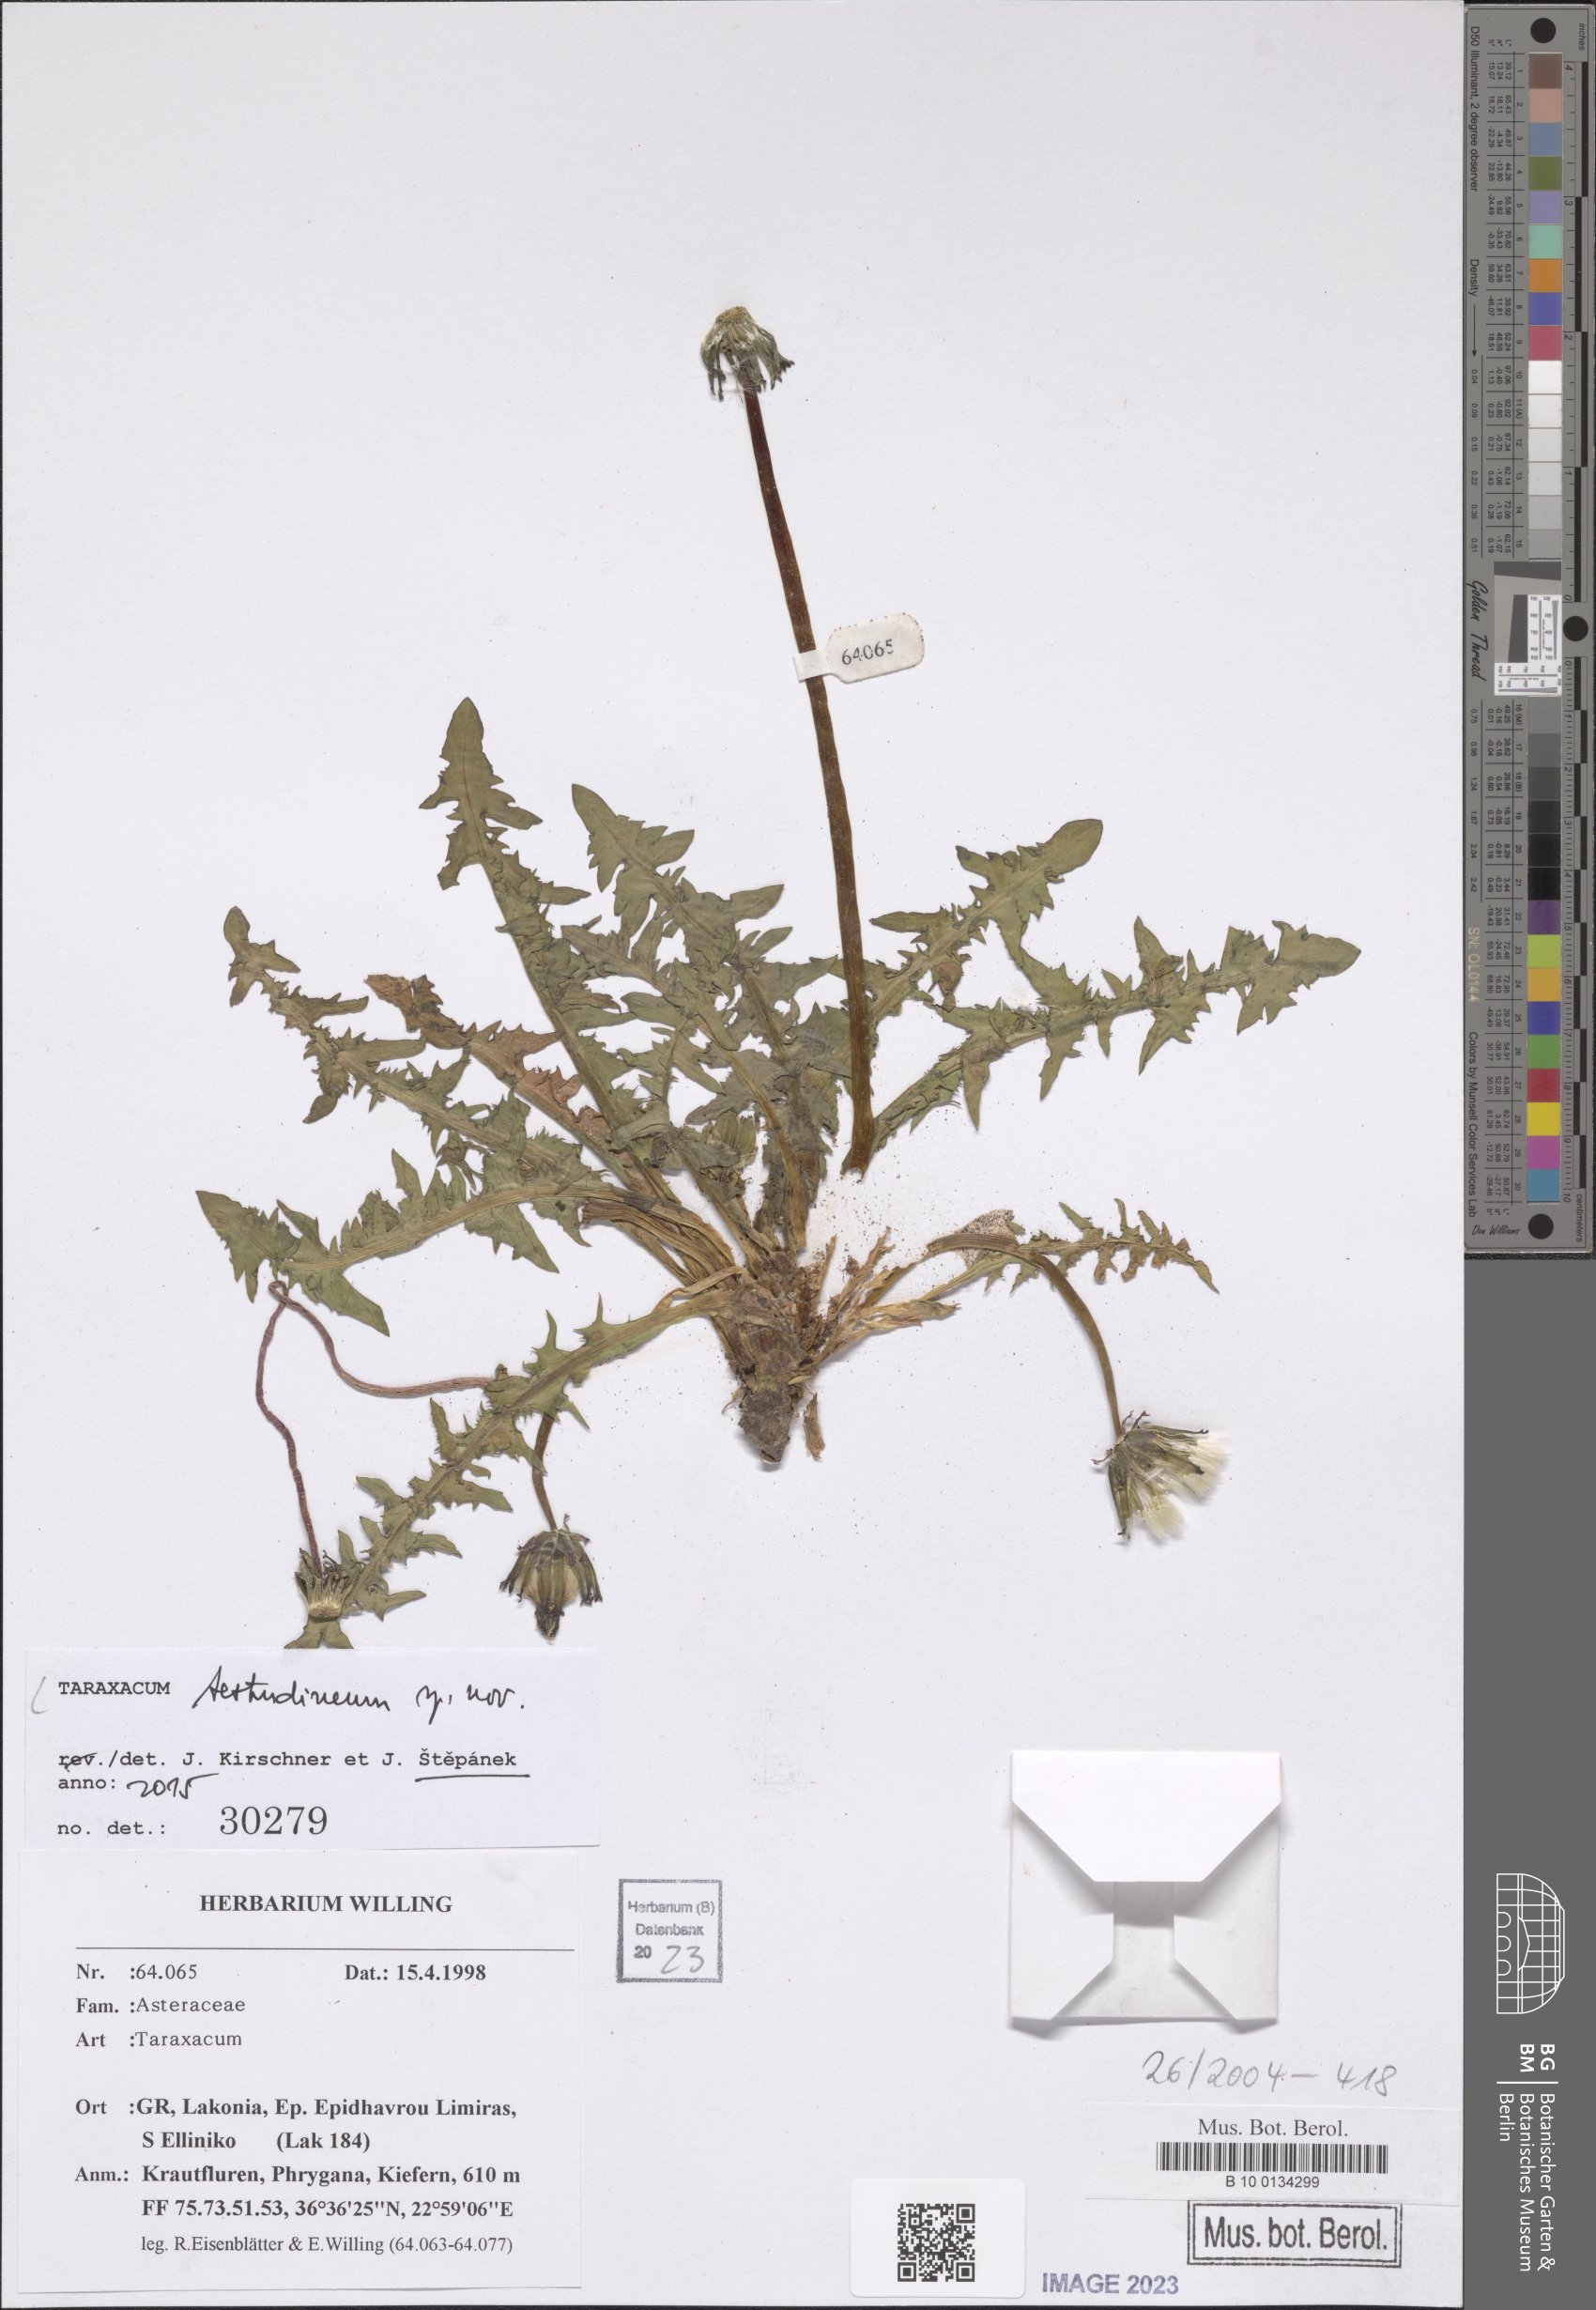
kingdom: Plantae
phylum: Tracheophyta
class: Magnoliopsida
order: Asterales
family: Asteraceae
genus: Taraxacum
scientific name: Taraxacum
